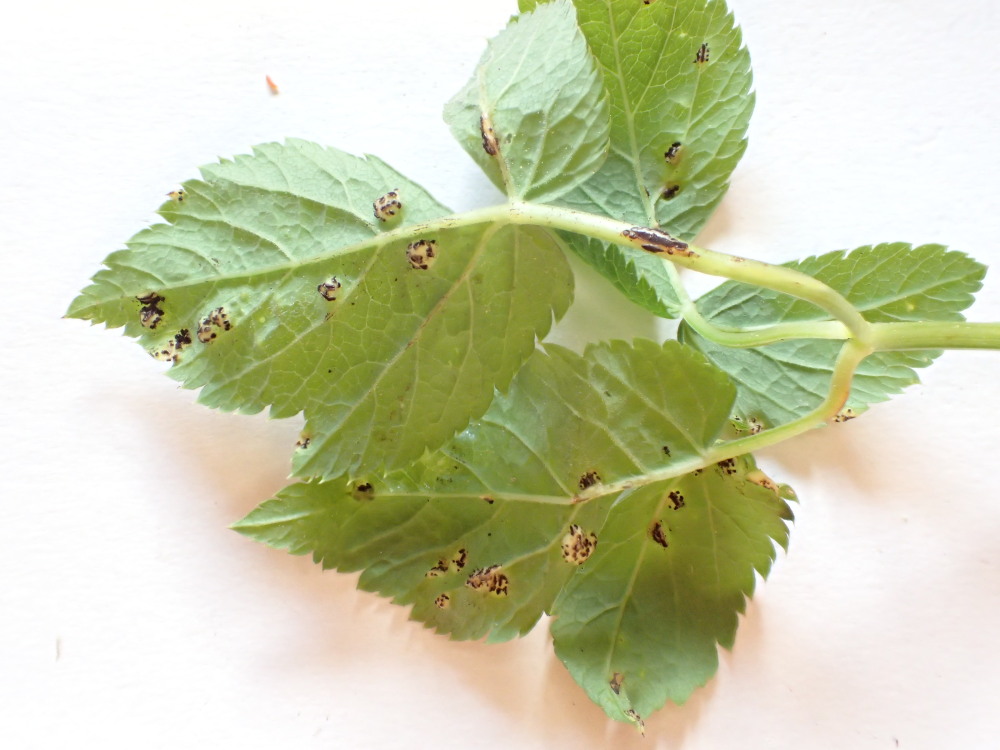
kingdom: Fungi
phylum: Basidiomycota
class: Pucciniomycetes
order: Pucciniales
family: Pucciniaceae
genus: Puccinia
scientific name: Puccinia
